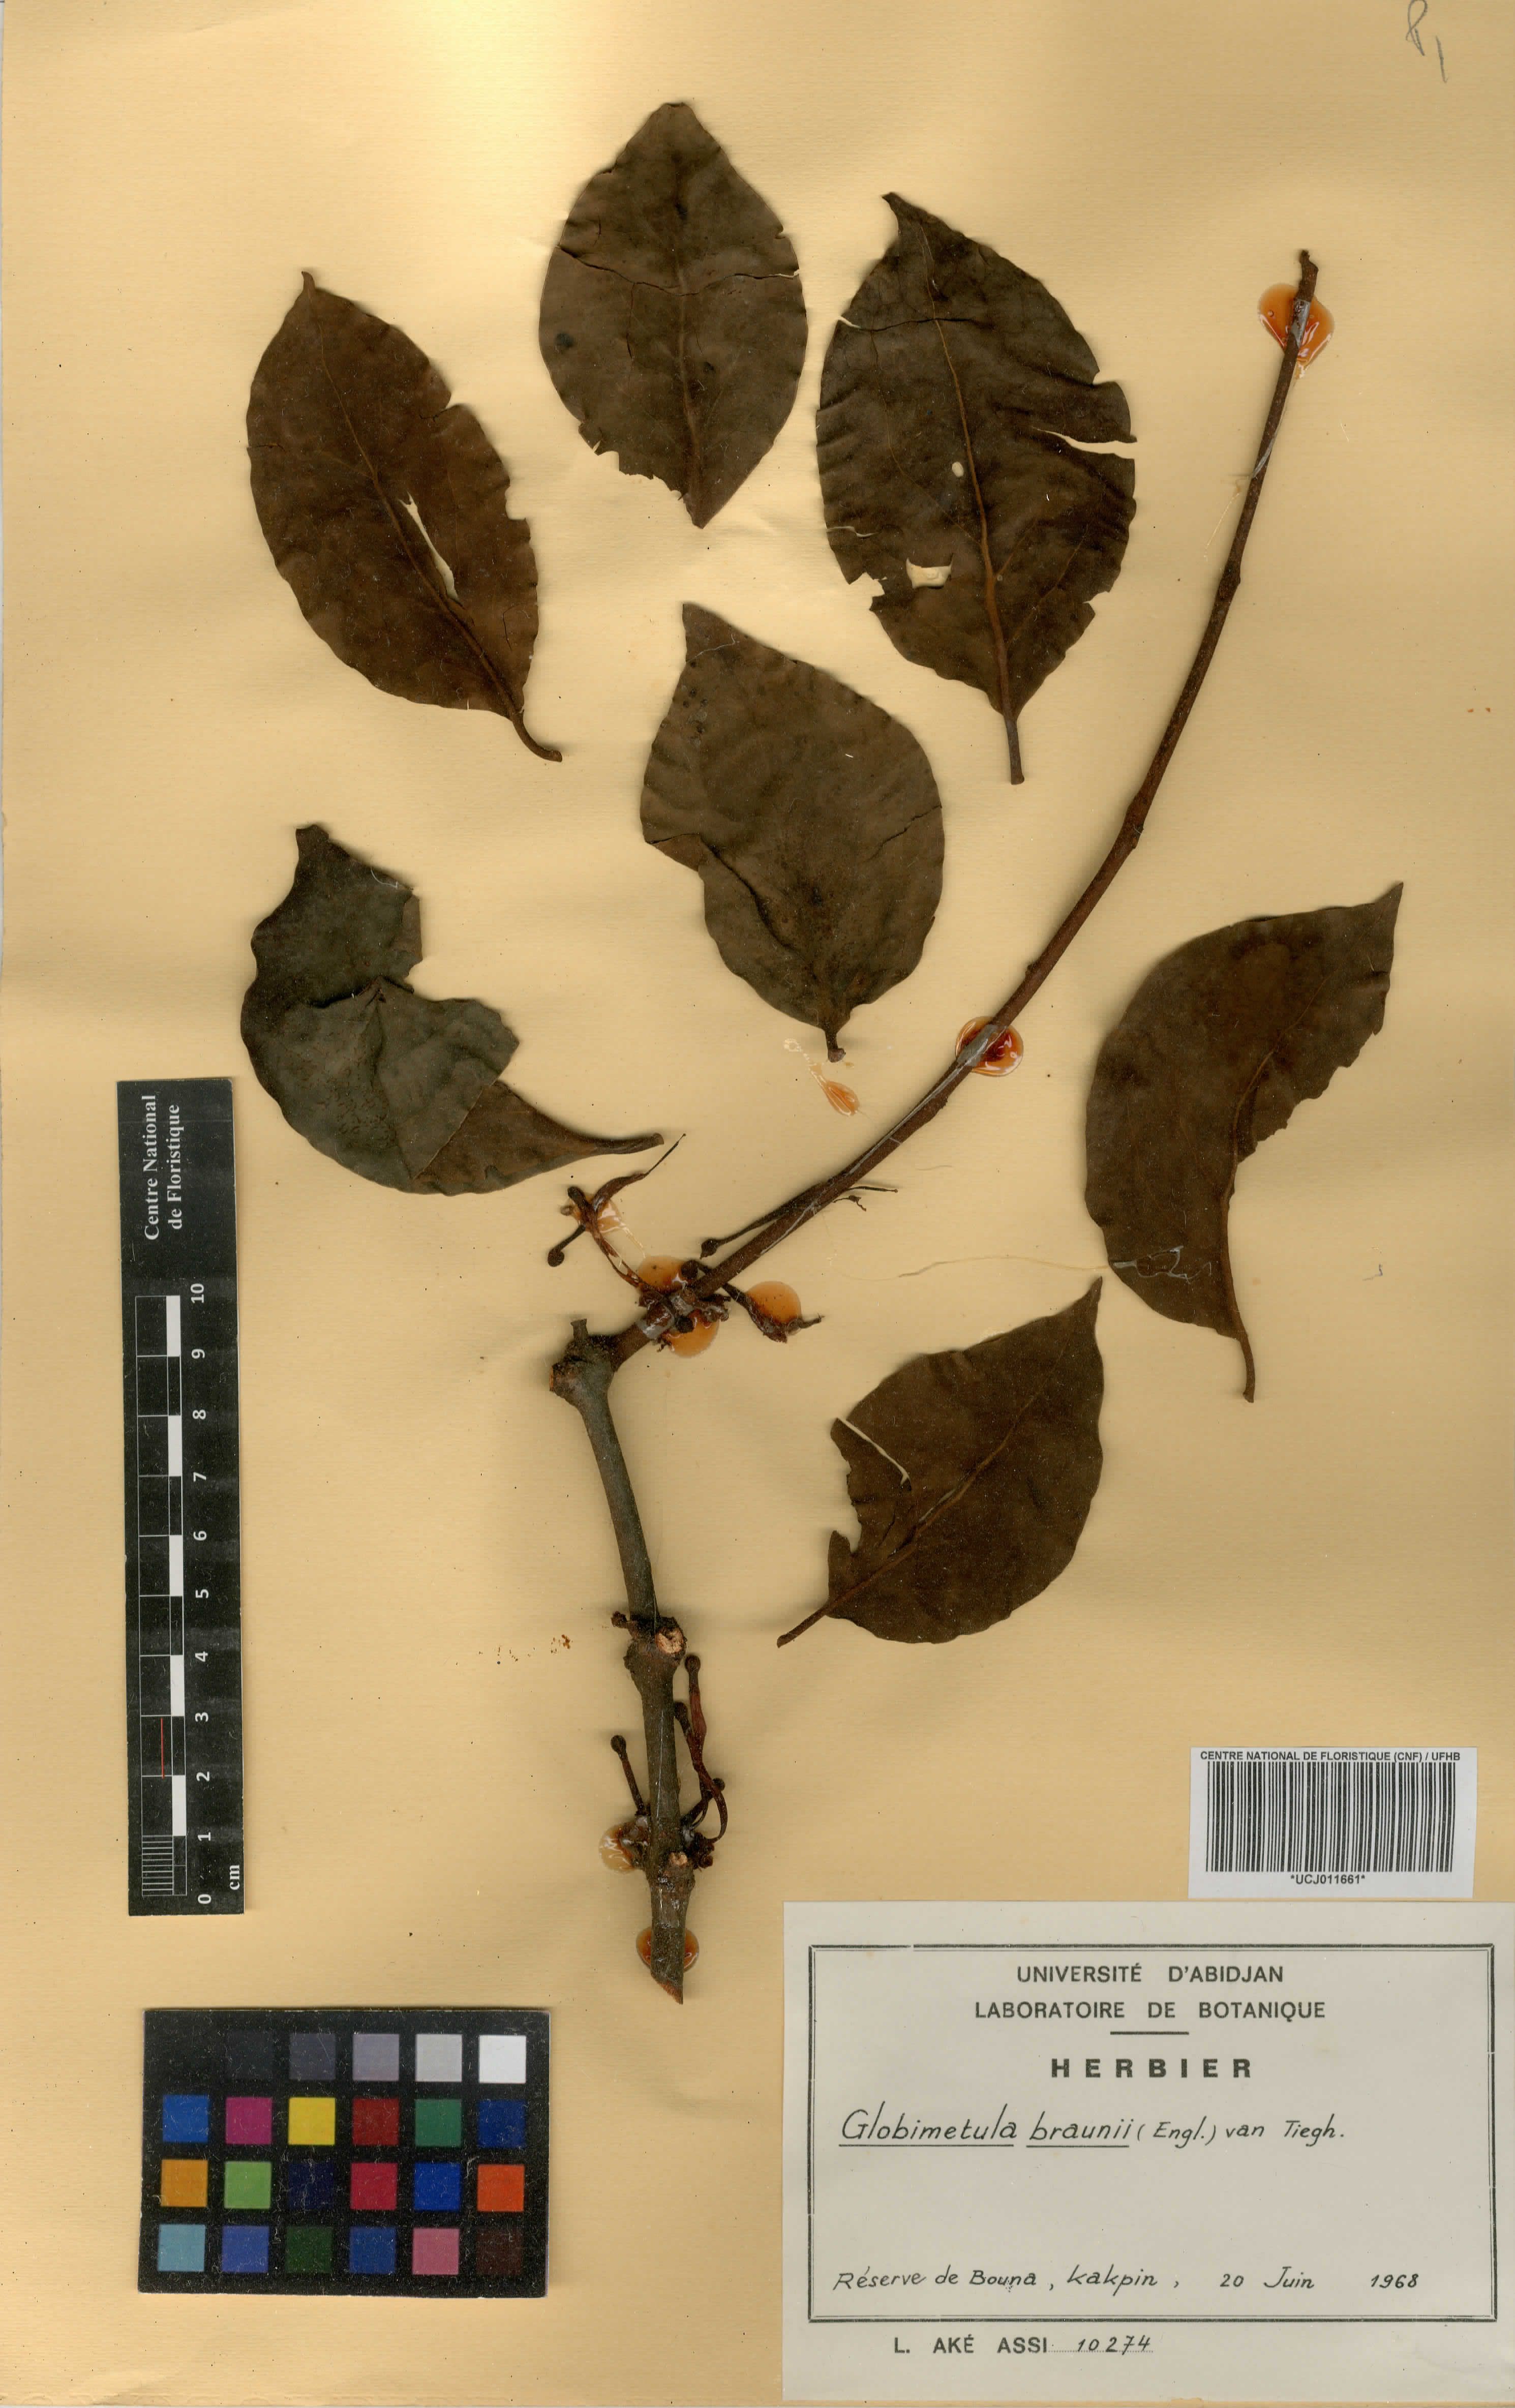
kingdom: Plantae
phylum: Tracheophyta
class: Magnoliopsida
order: Santalales
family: Loranthaceae
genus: Globimetula
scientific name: Globimetula braunii
